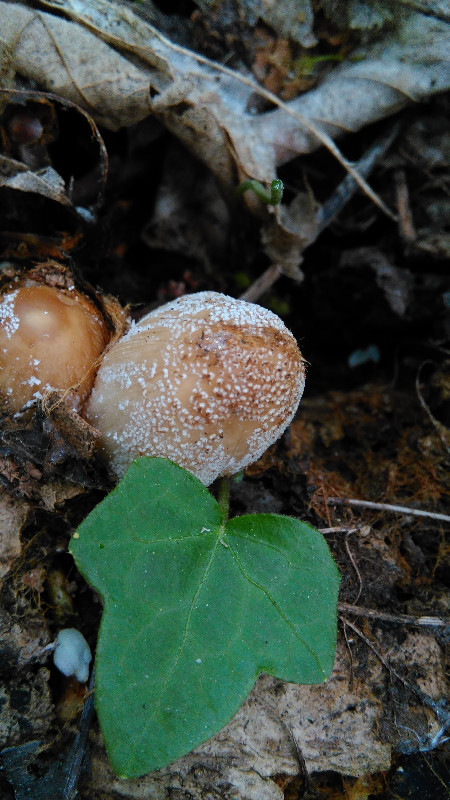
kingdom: Fungi
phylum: Basidiomycota
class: Agaricomycetes
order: Agaricales
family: Psathyrellaceae
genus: Coprinellus
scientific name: Coprinellus
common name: blækhat
